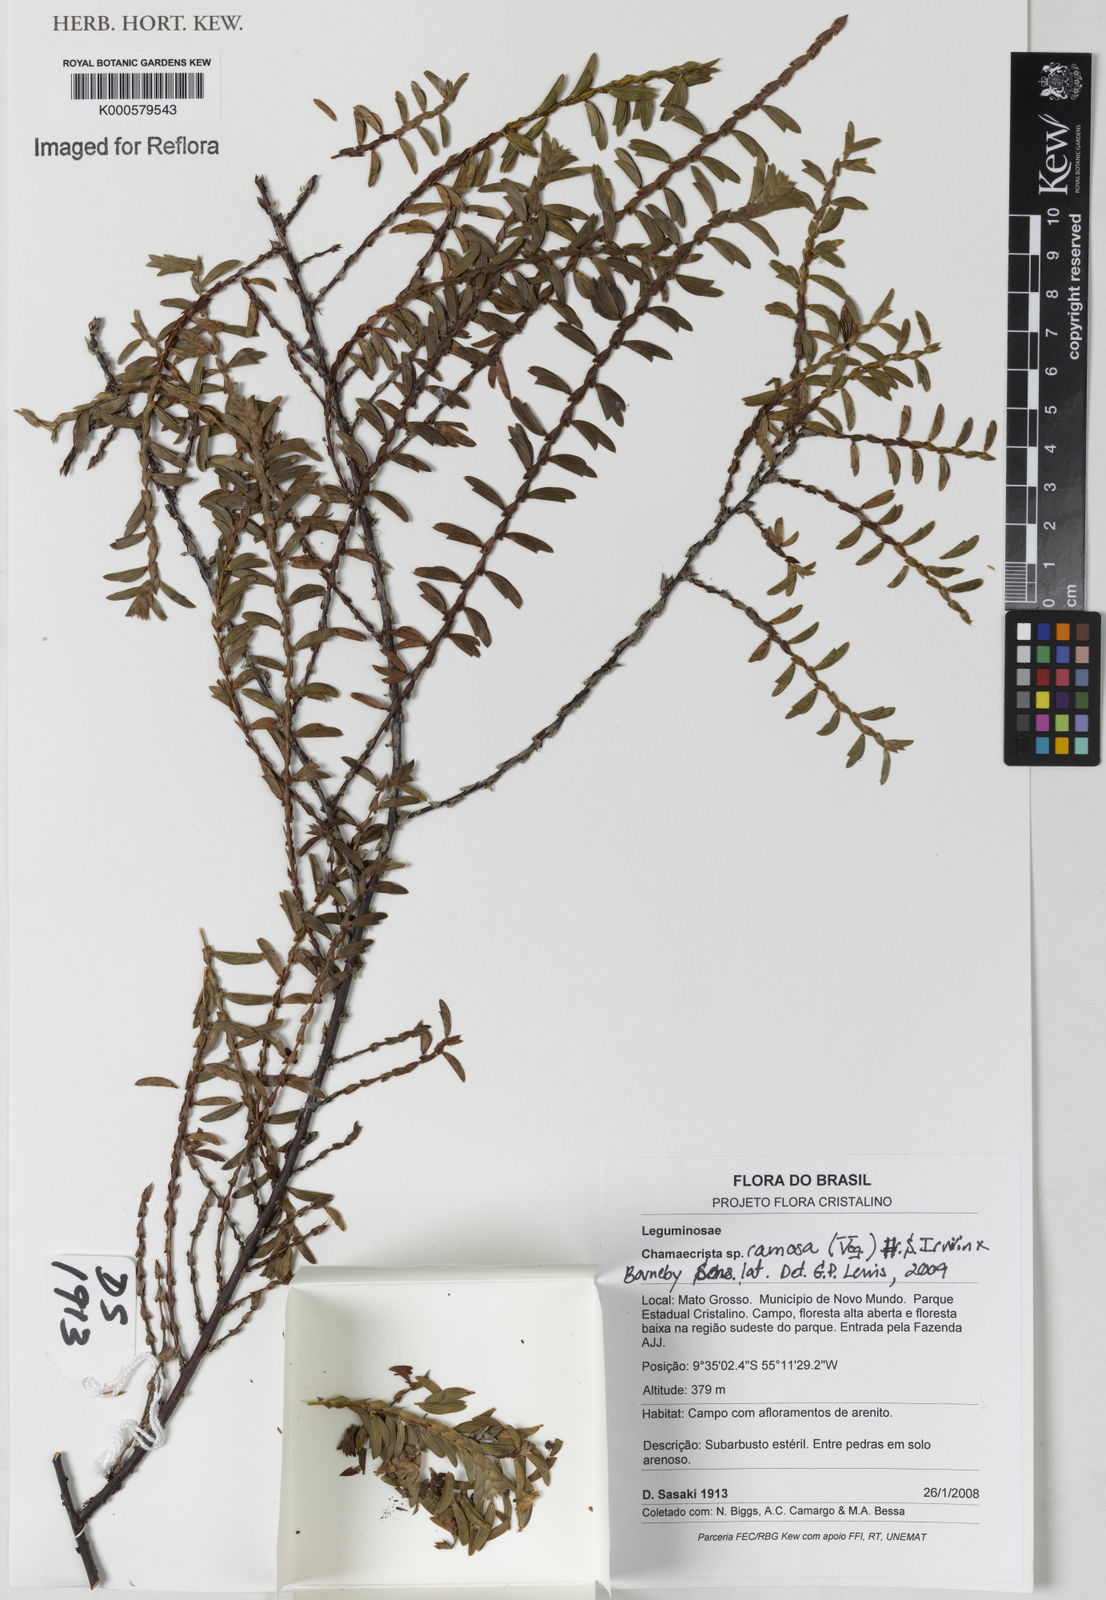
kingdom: Plantae
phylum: Tracheophyta
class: Magnoliopsida
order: Fabales
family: Fabaceae
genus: Chamaecrista
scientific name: Chamaecrista ramosa
